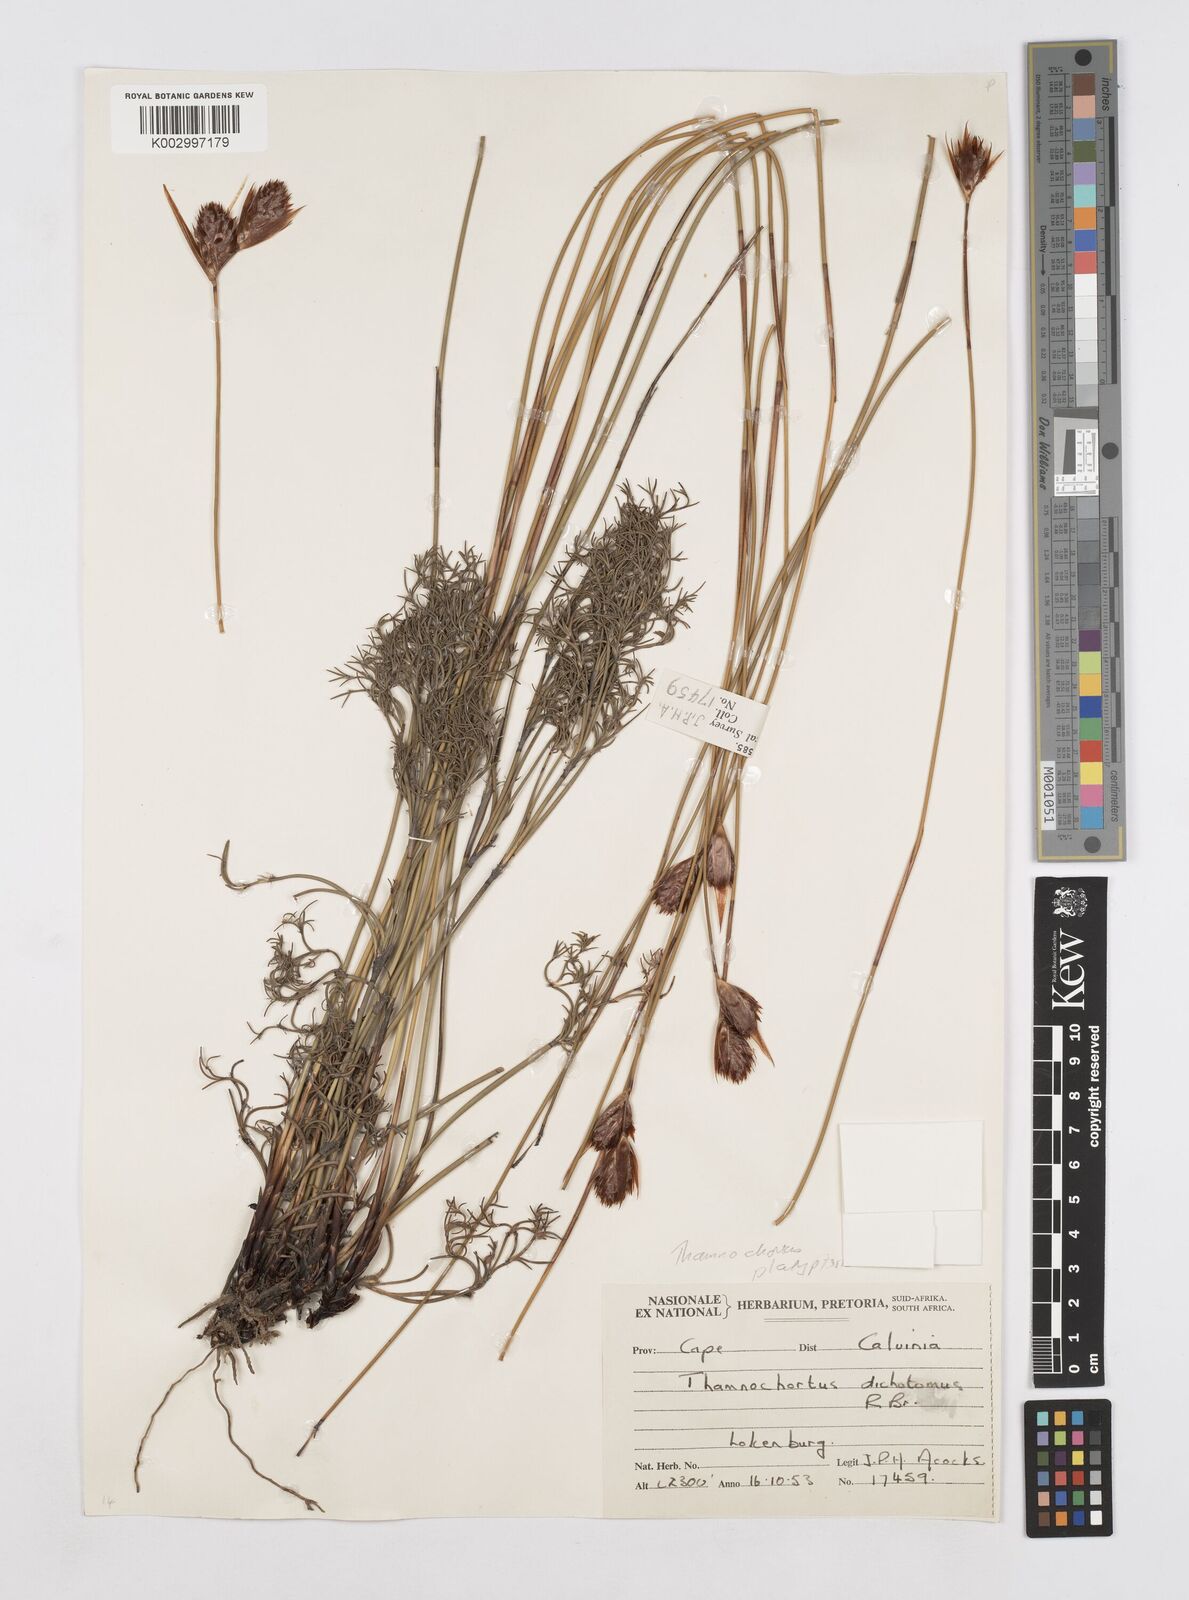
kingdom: Plantae
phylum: Tracheophyta
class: Liliopsida
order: Poales
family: Restionaceae
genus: Thamnochortus
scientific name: Thamnochortus platypteris
